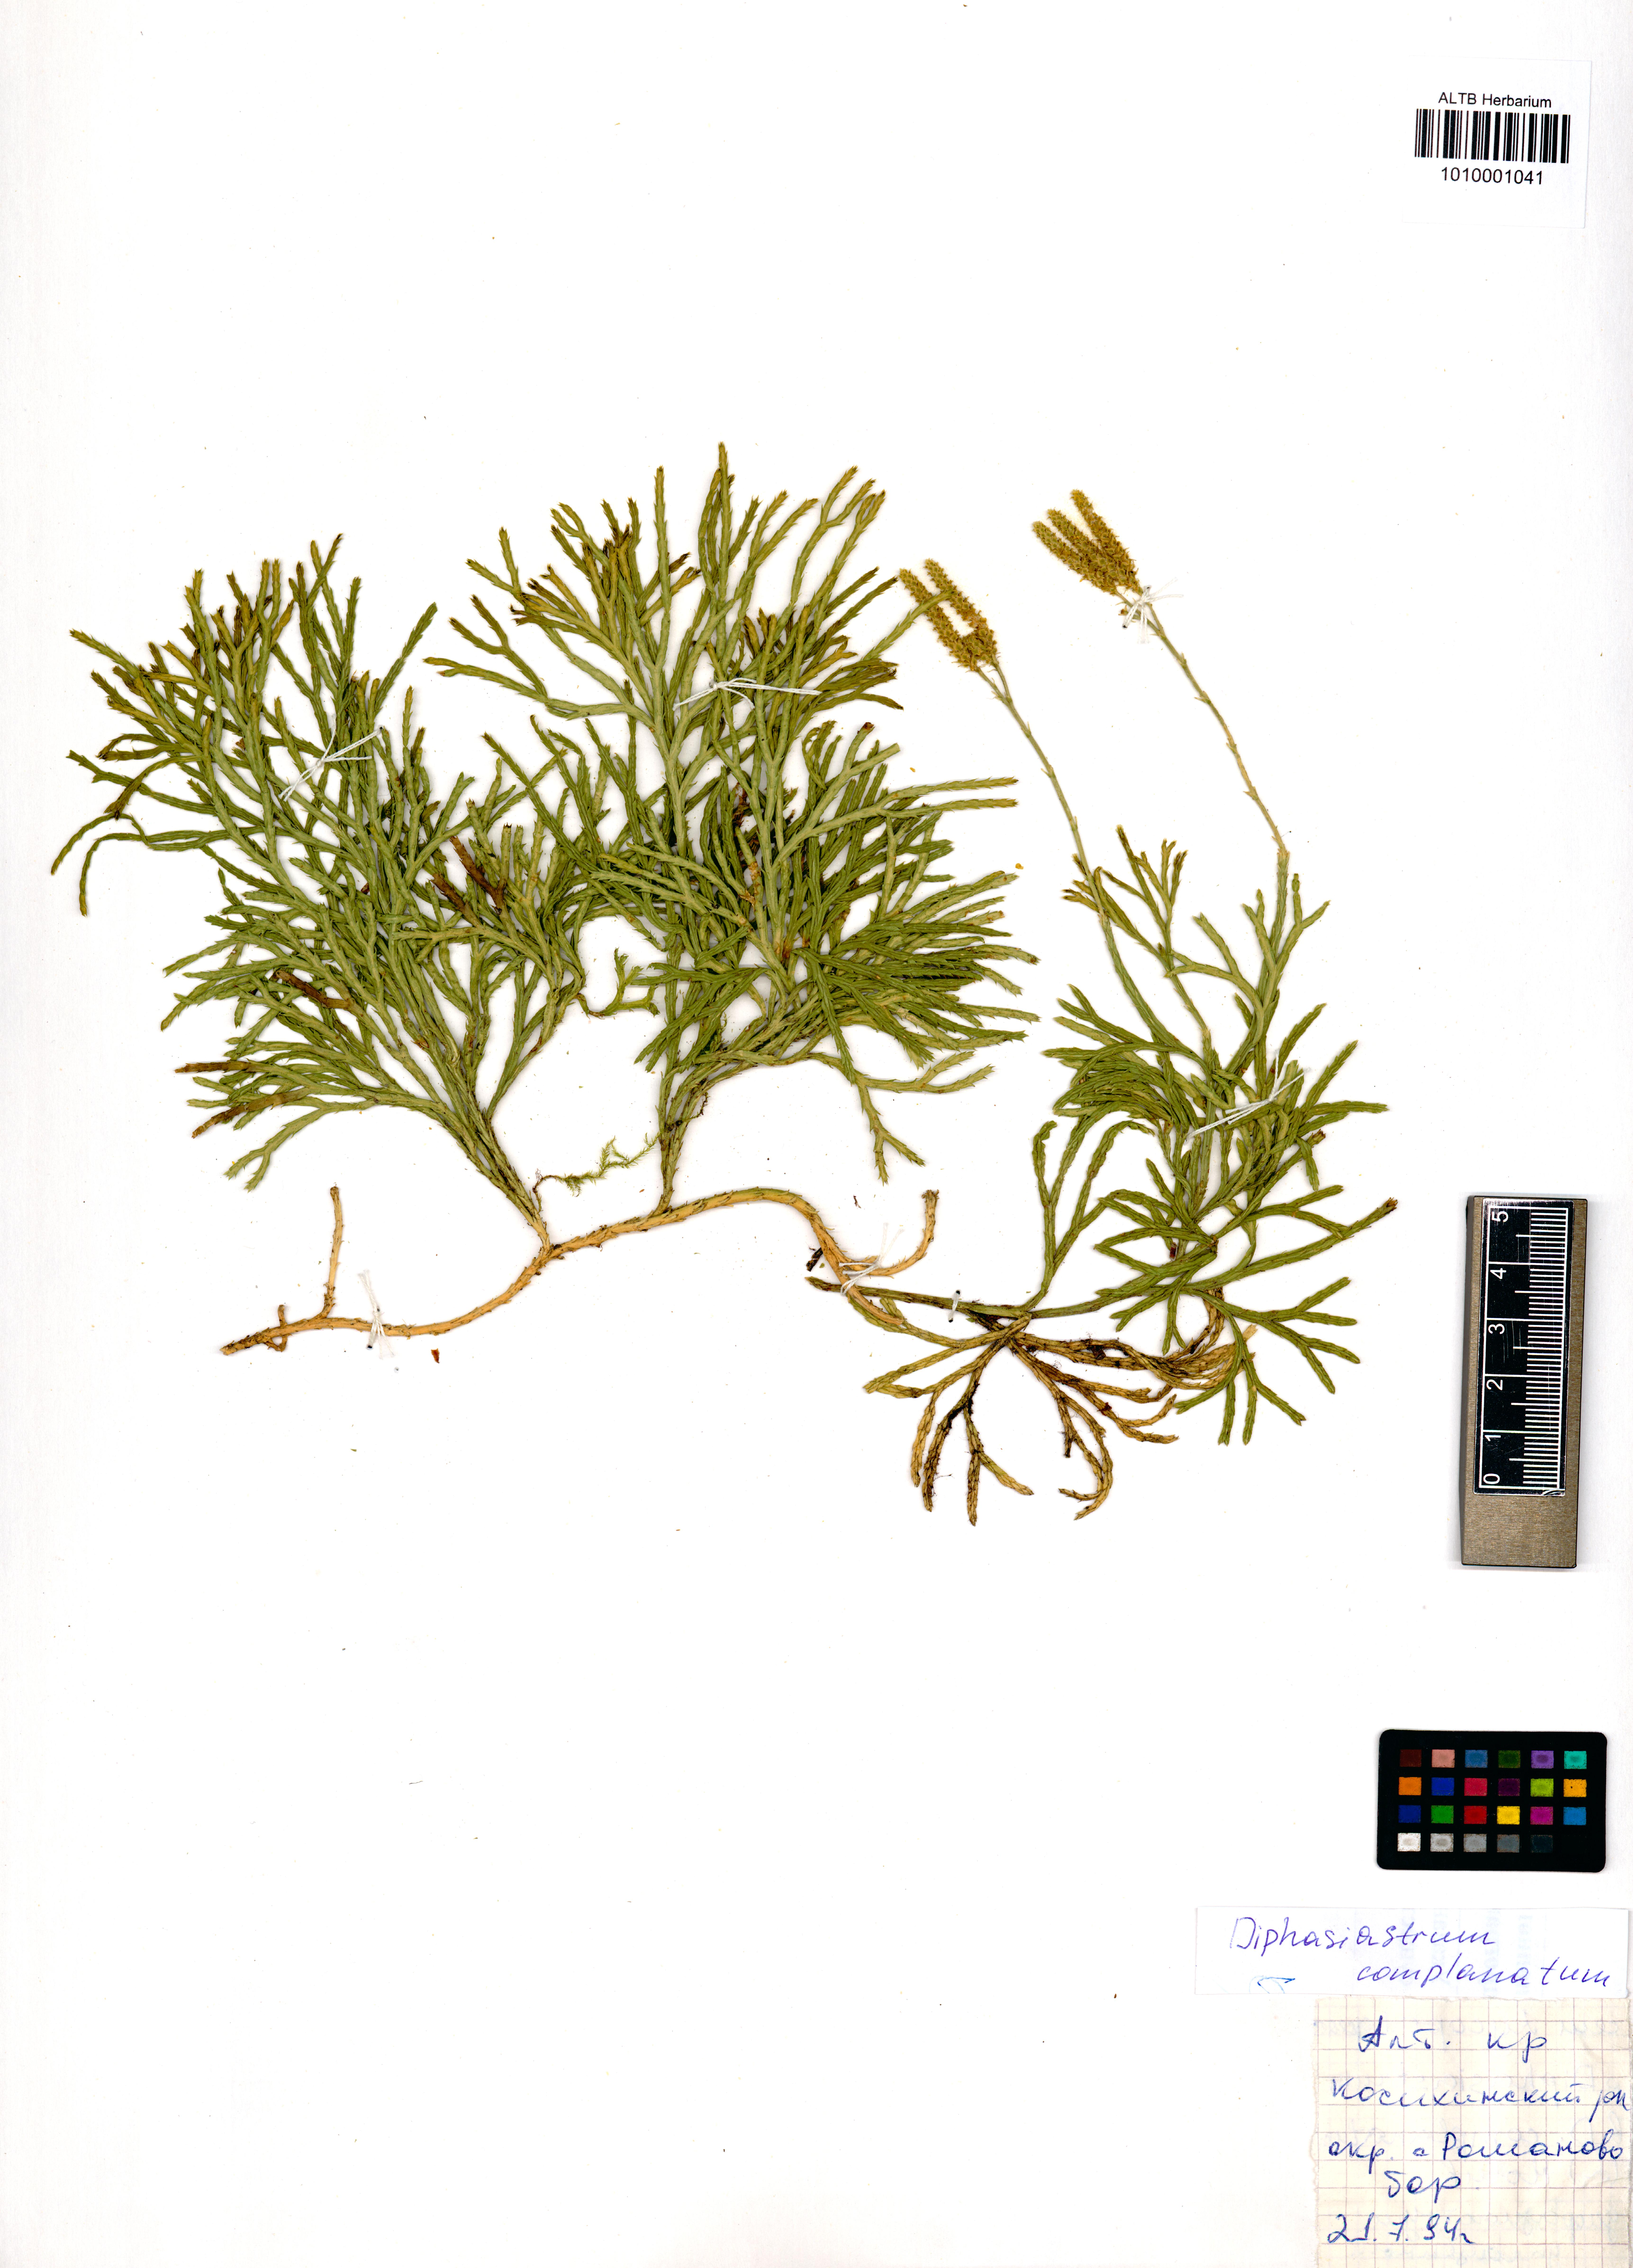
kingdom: Plantae
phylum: Tracheophyta
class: Lycopodiopsida
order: Lycopodiales
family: Lycopodiaceae
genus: Diphasiastrum
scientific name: Diphasiastrum complanatum
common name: Northern running-pine
